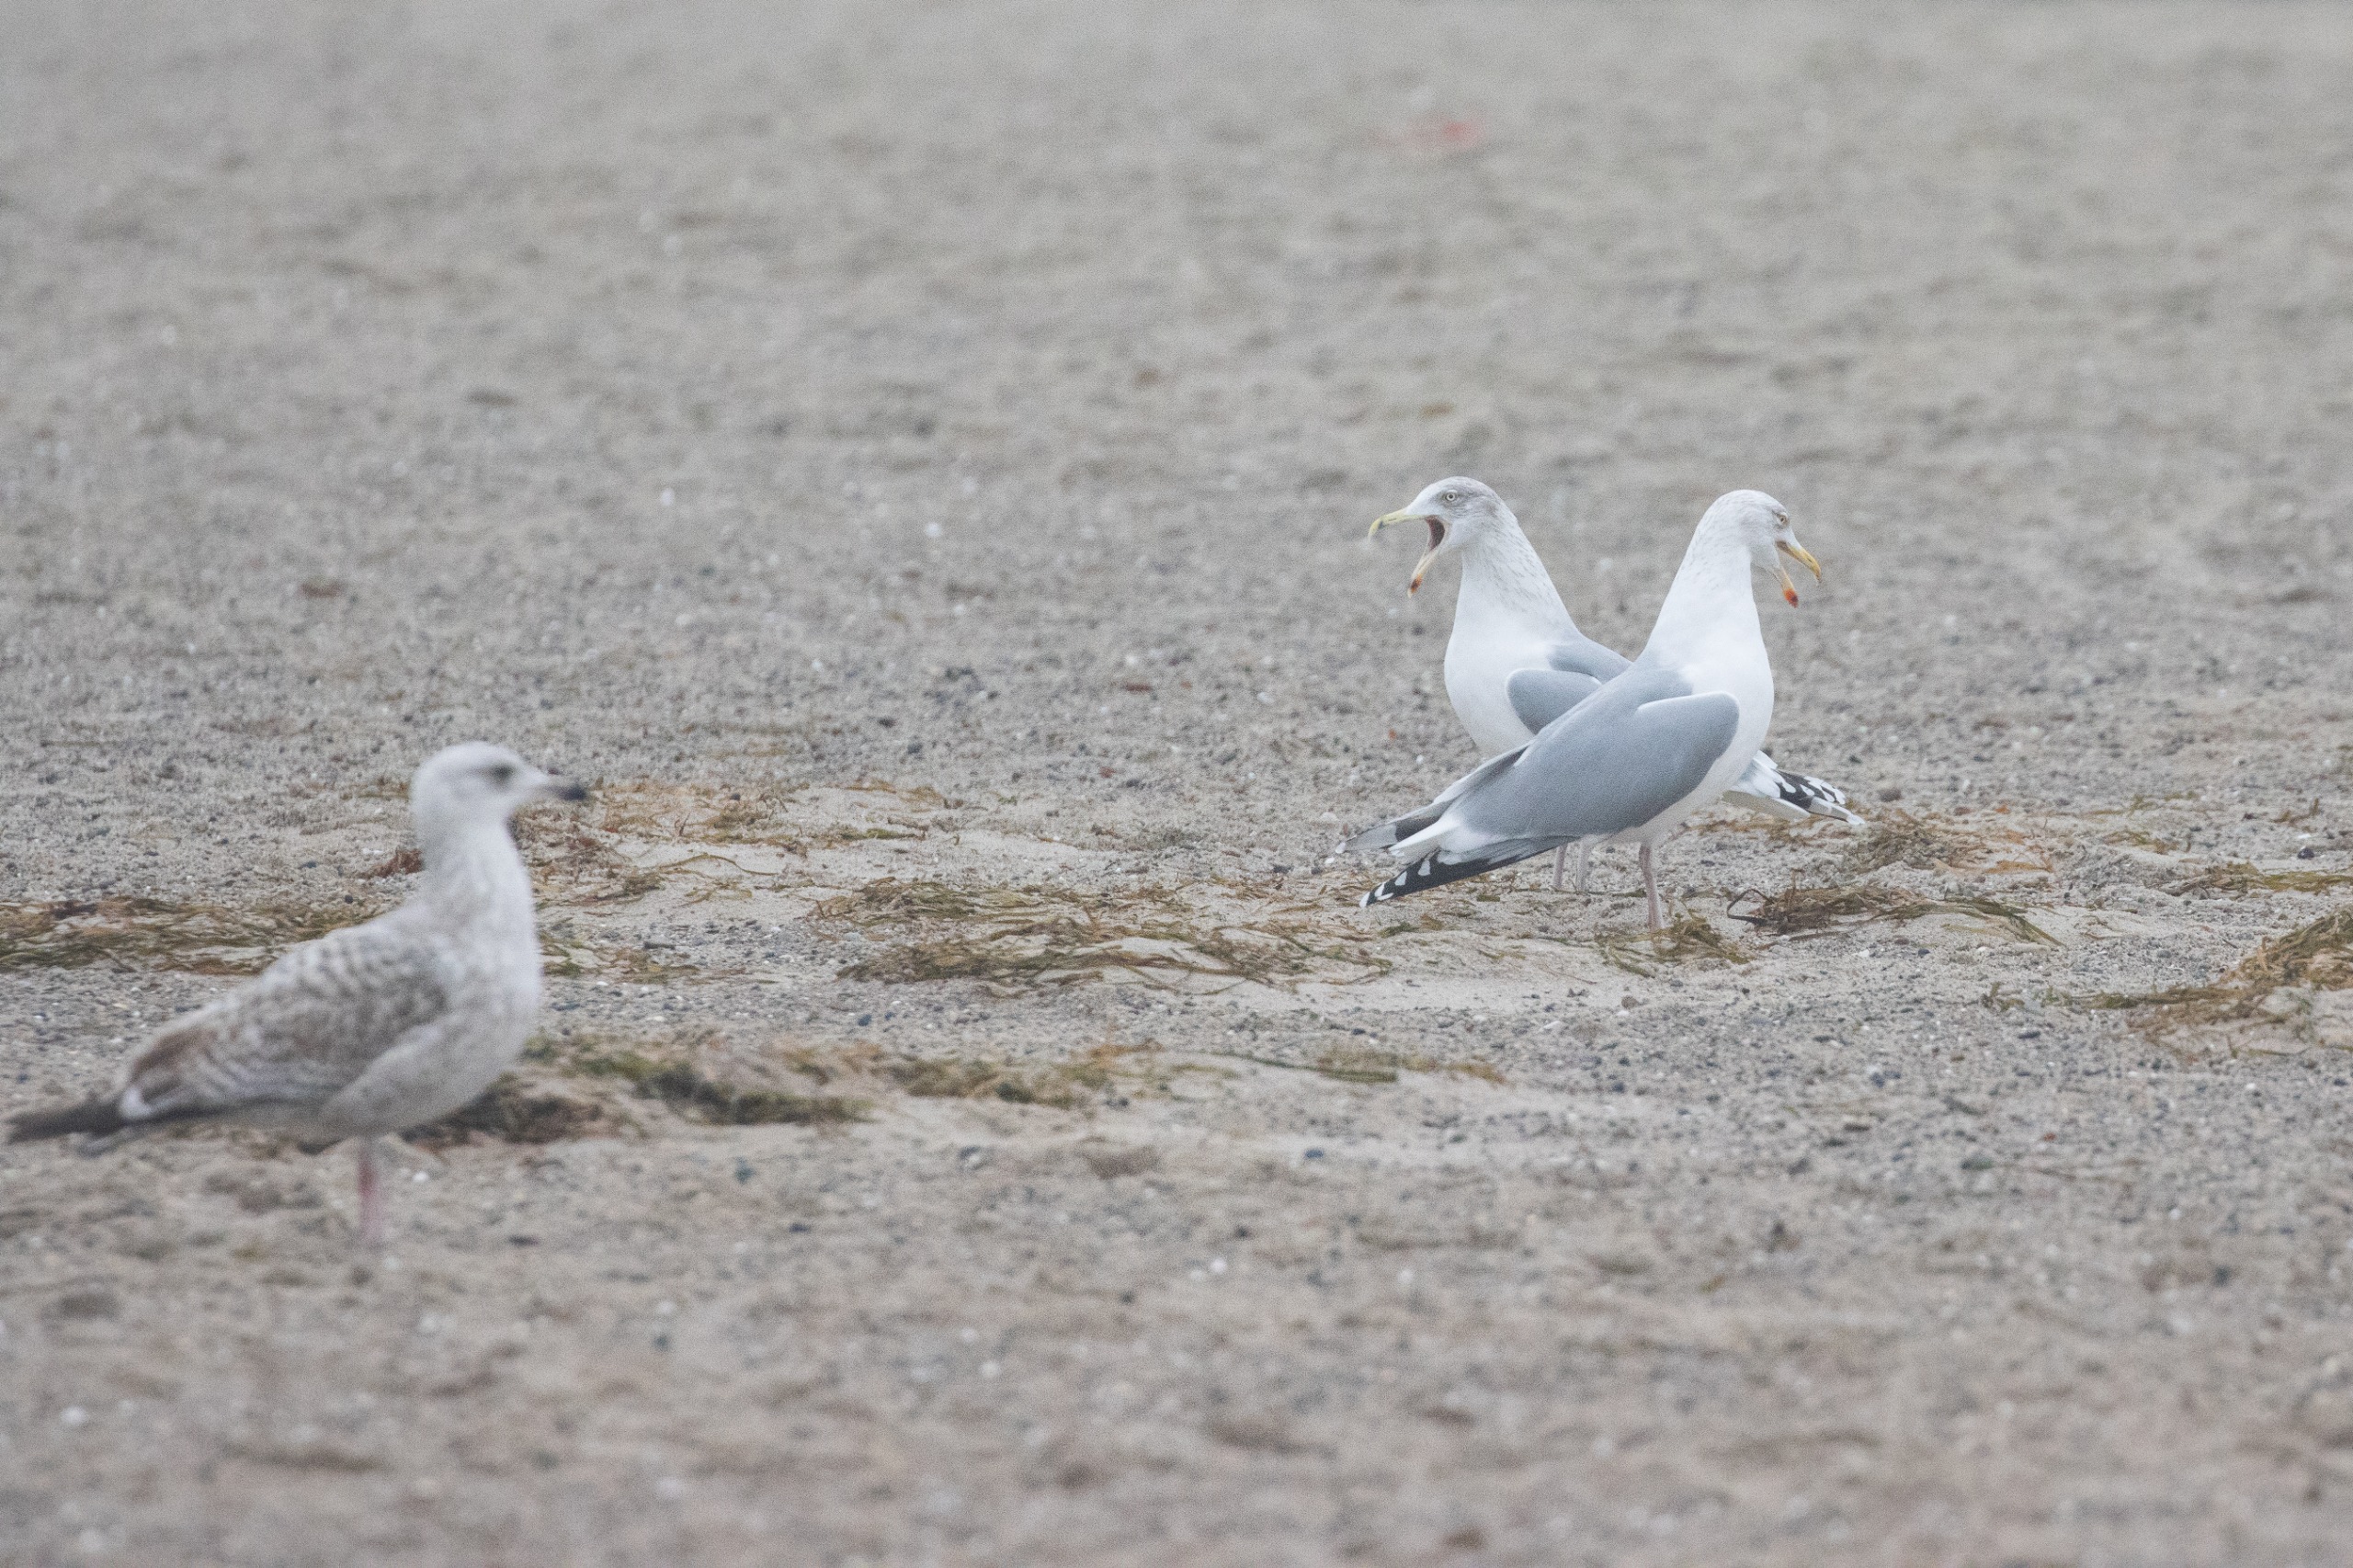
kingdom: Animalia
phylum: Chordata
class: Aves
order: Charadriiformes
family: Laridae
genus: Larus
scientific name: Larus argentatus
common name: Sølvmåge
